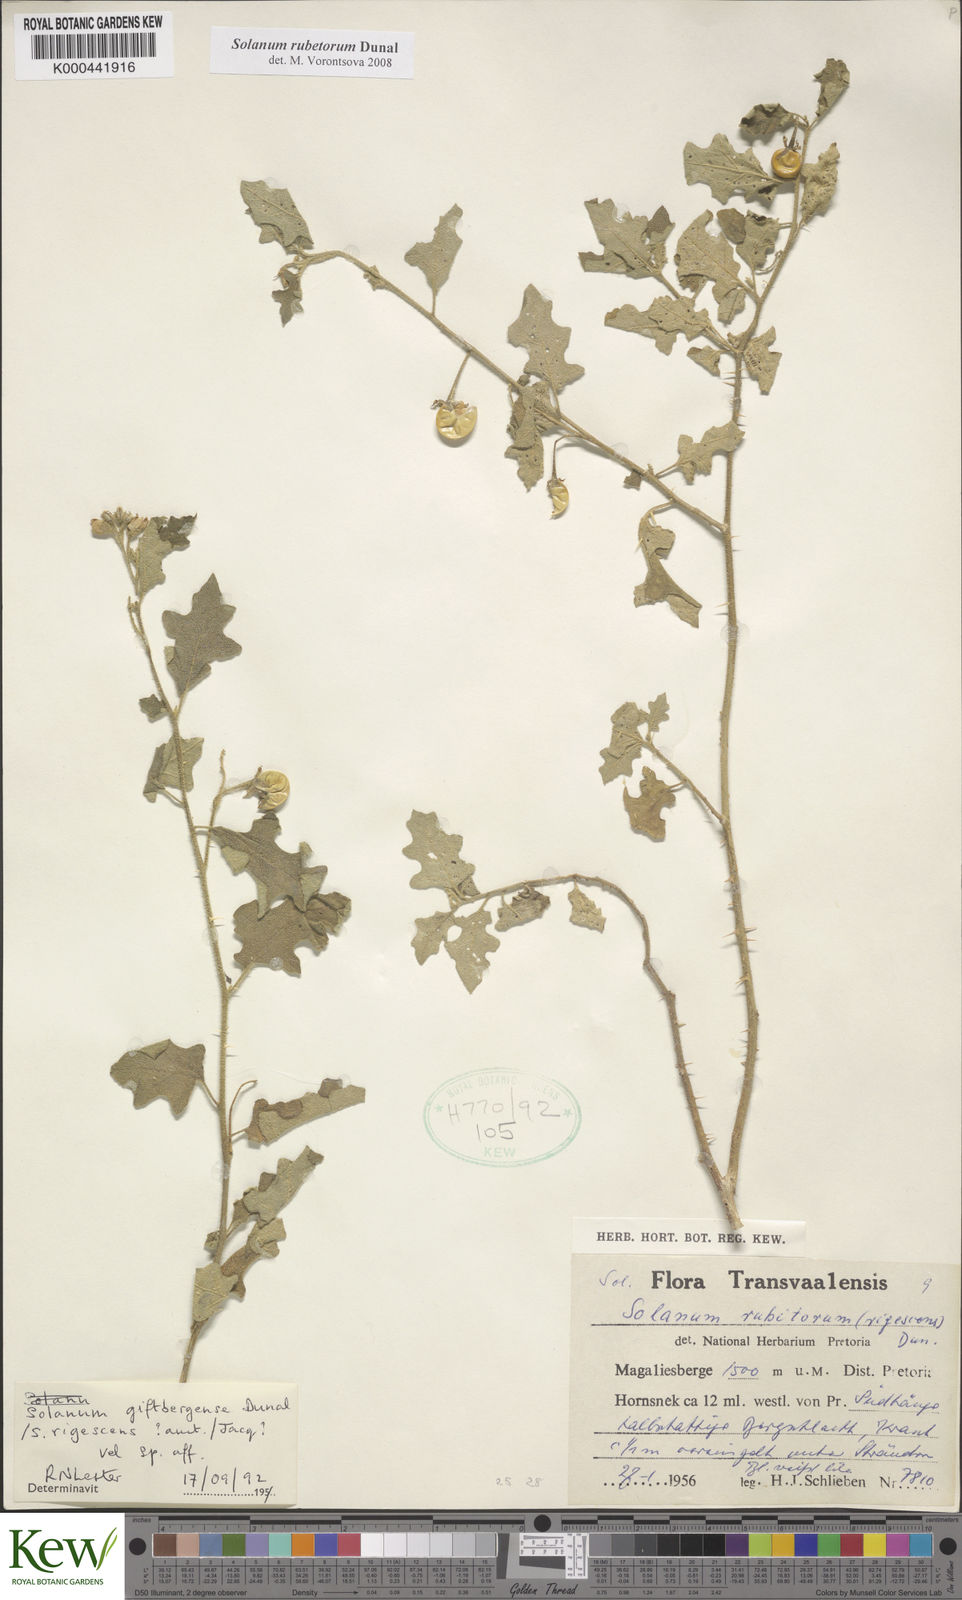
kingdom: Plantae
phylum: Tracheophyta
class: Magnoliopsida
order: Solanales
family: Solanaceae
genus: Solanum
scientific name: Solanum rubetorum
